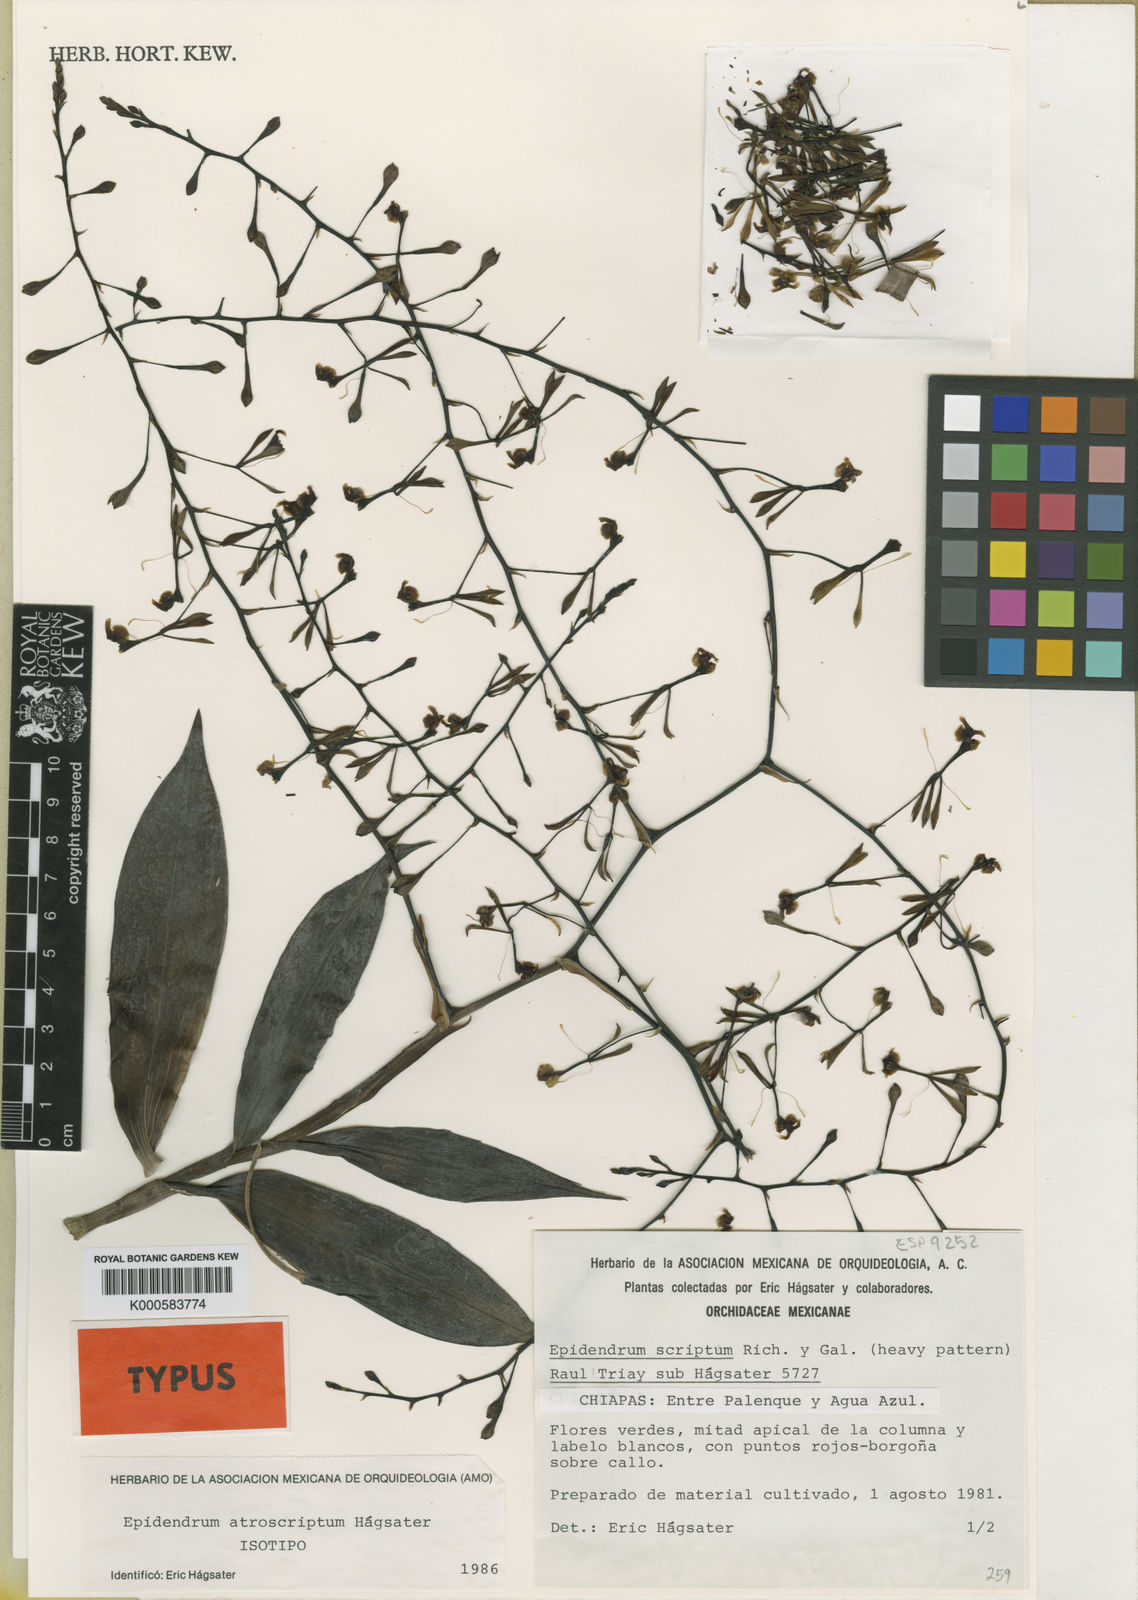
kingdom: Plantae
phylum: Tracheophyta
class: Liliopsida
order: Asparagales
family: Orchidaceae
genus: Epidendrum
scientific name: Epidendrum
